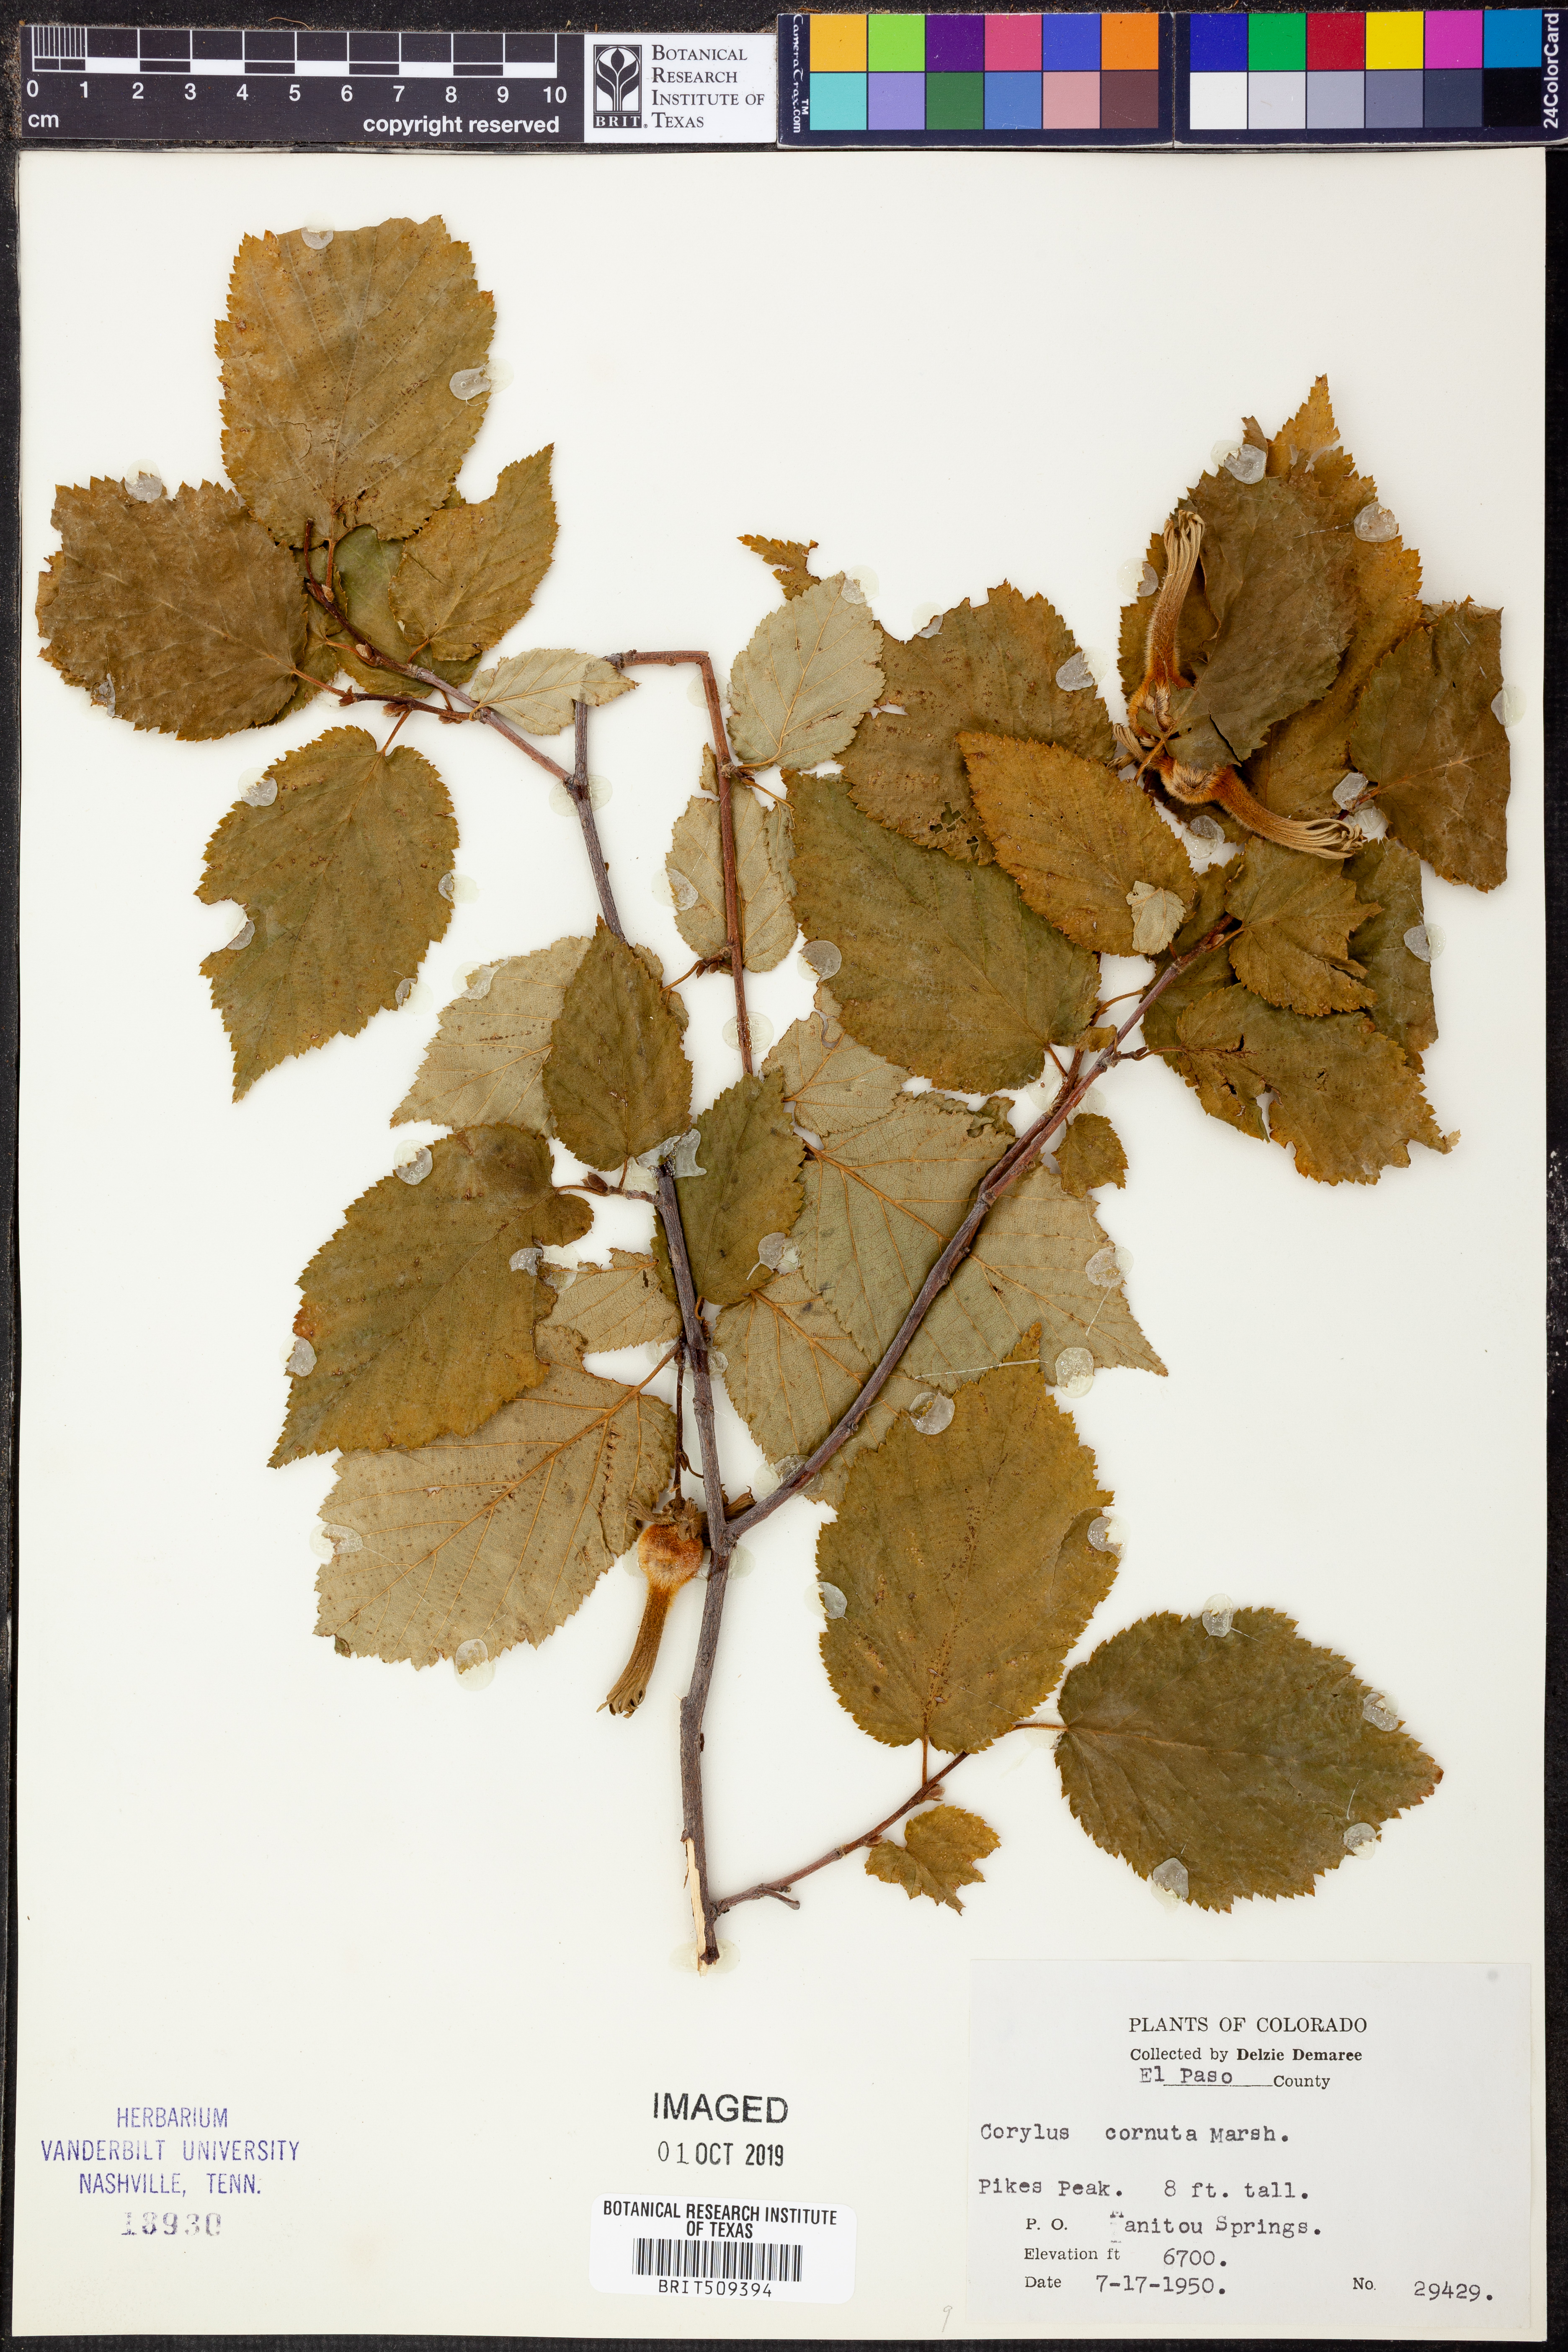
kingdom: Plantae
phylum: Tracheophyta
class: Magnoliopsida
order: Fagales
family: Betulaceae
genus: Corylus
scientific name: Corylus cornuta
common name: Beaked hazel
